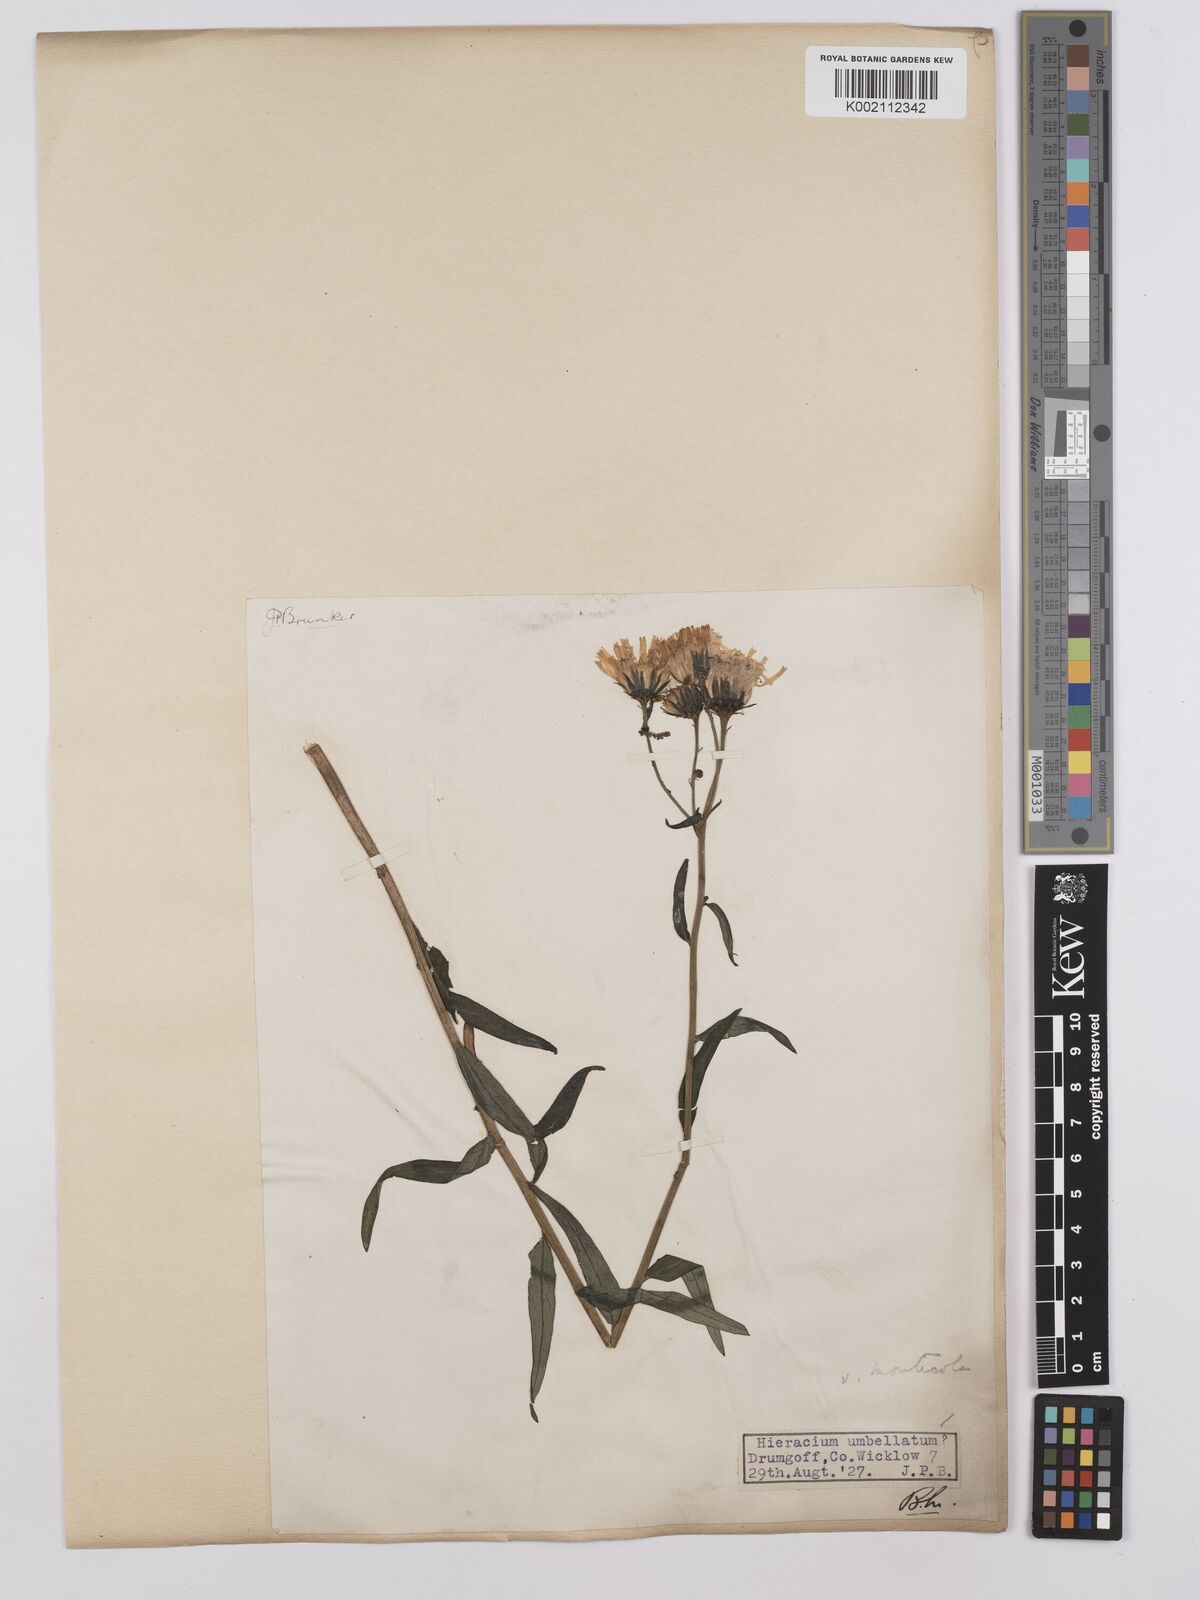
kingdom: Plantae
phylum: Tracheophyta
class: Magnoliopsida
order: Asterales
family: Asteraceae
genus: Hieracium
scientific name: Hieracium umbellatum
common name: Northern hawkweed
